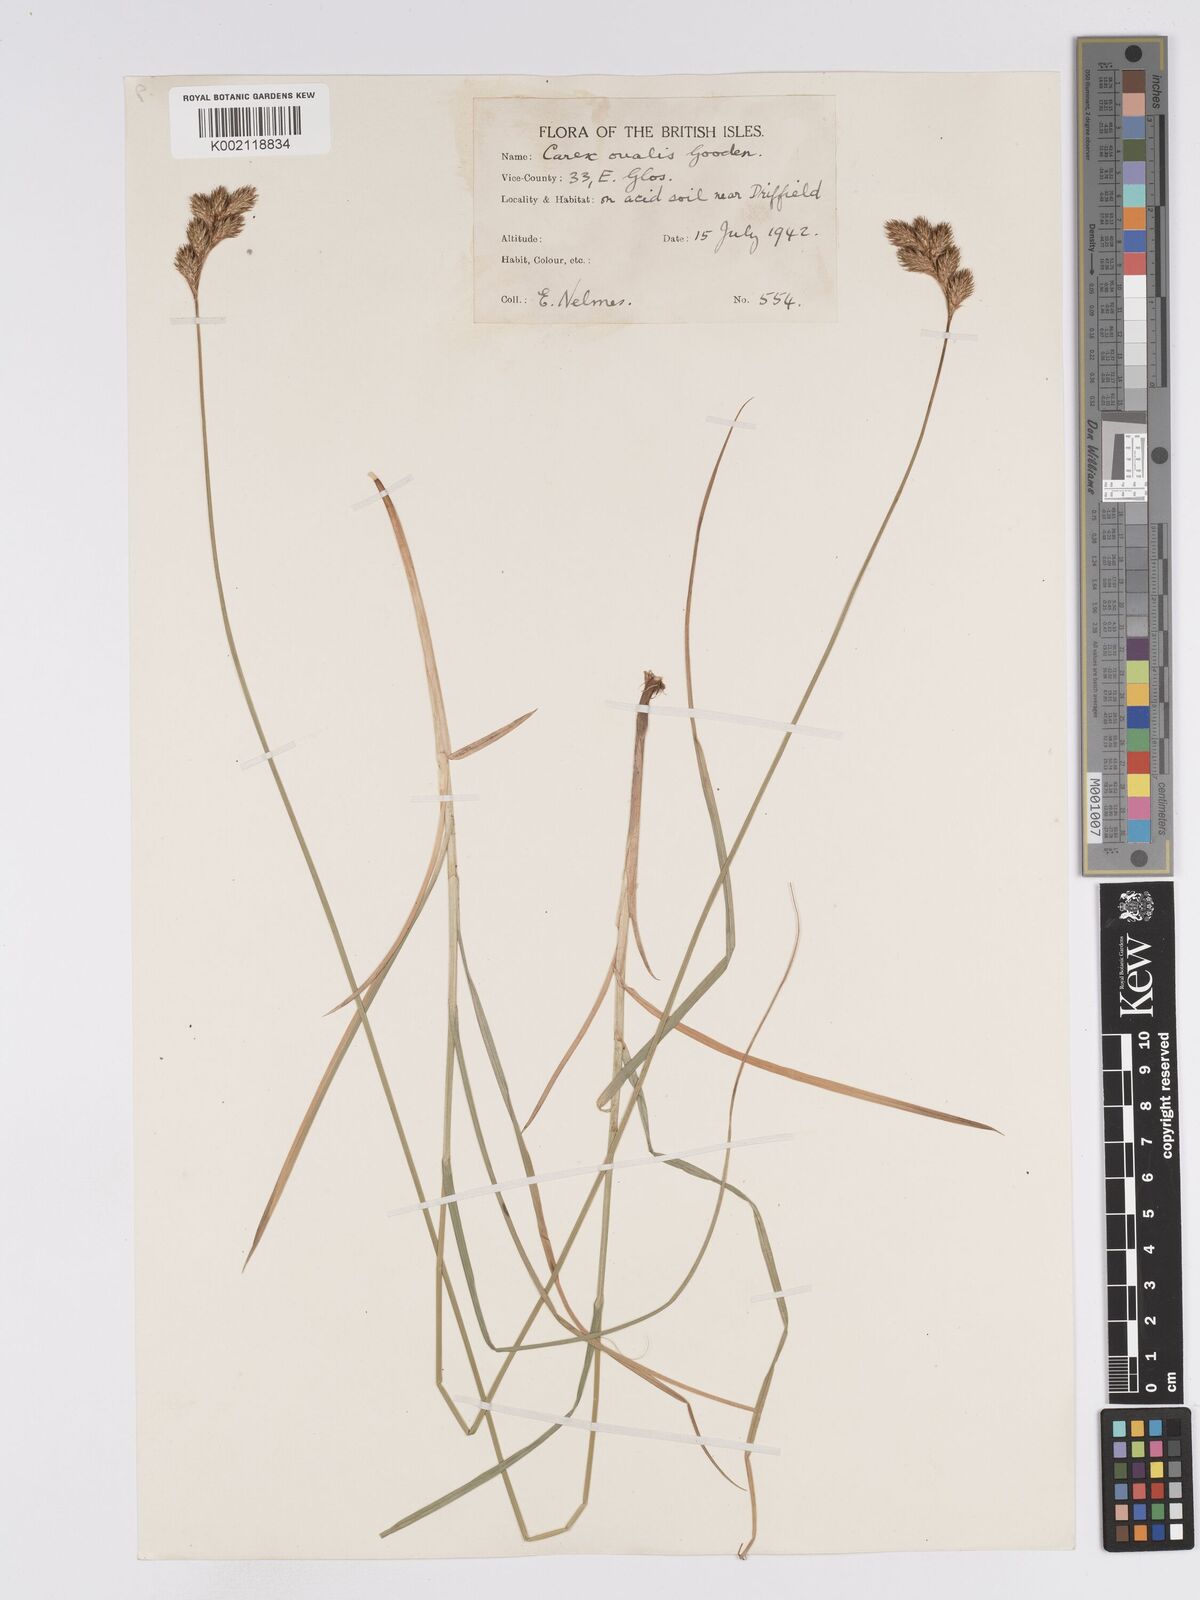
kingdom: Plantae
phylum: Tracheophyta
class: Liliopsida
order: Poales
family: Cyperaceae
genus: Carex
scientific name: Carex leporina
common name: Oval sedge
